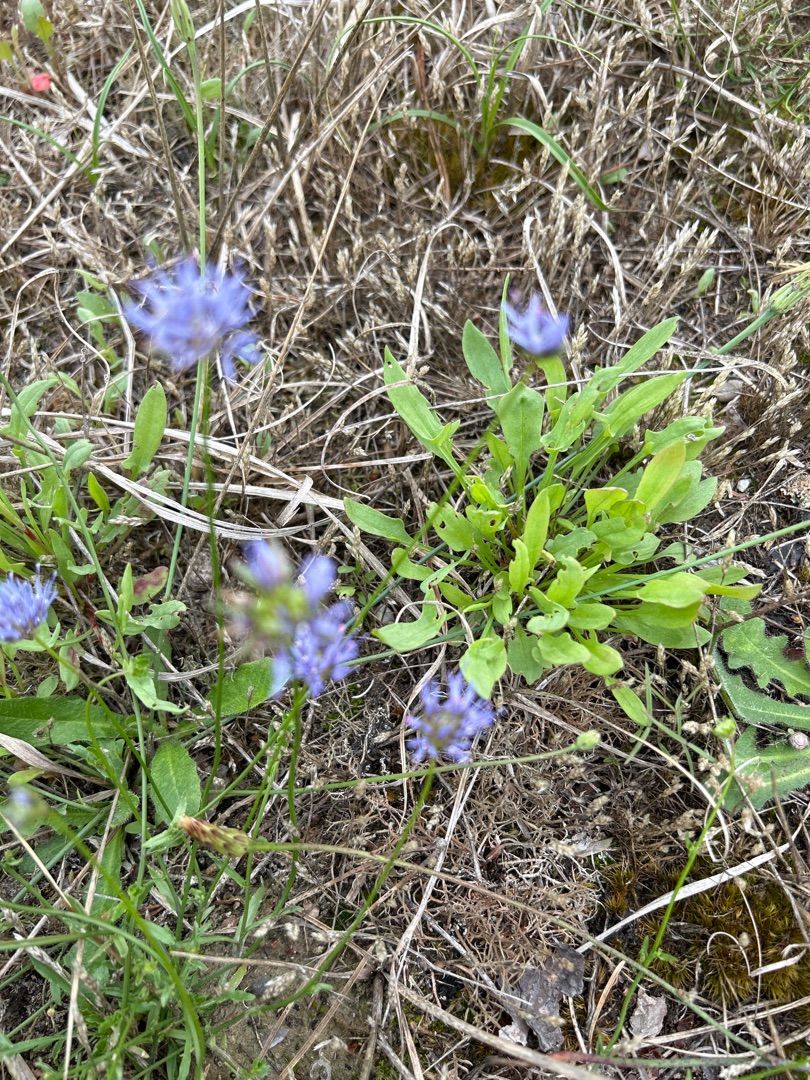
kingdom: Plantae
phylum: Tracheophyta
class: Magnoliopsida
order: Asterales
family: Campanulaceae
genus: Jasione
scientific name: Jasione montana
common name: Blåmunke
